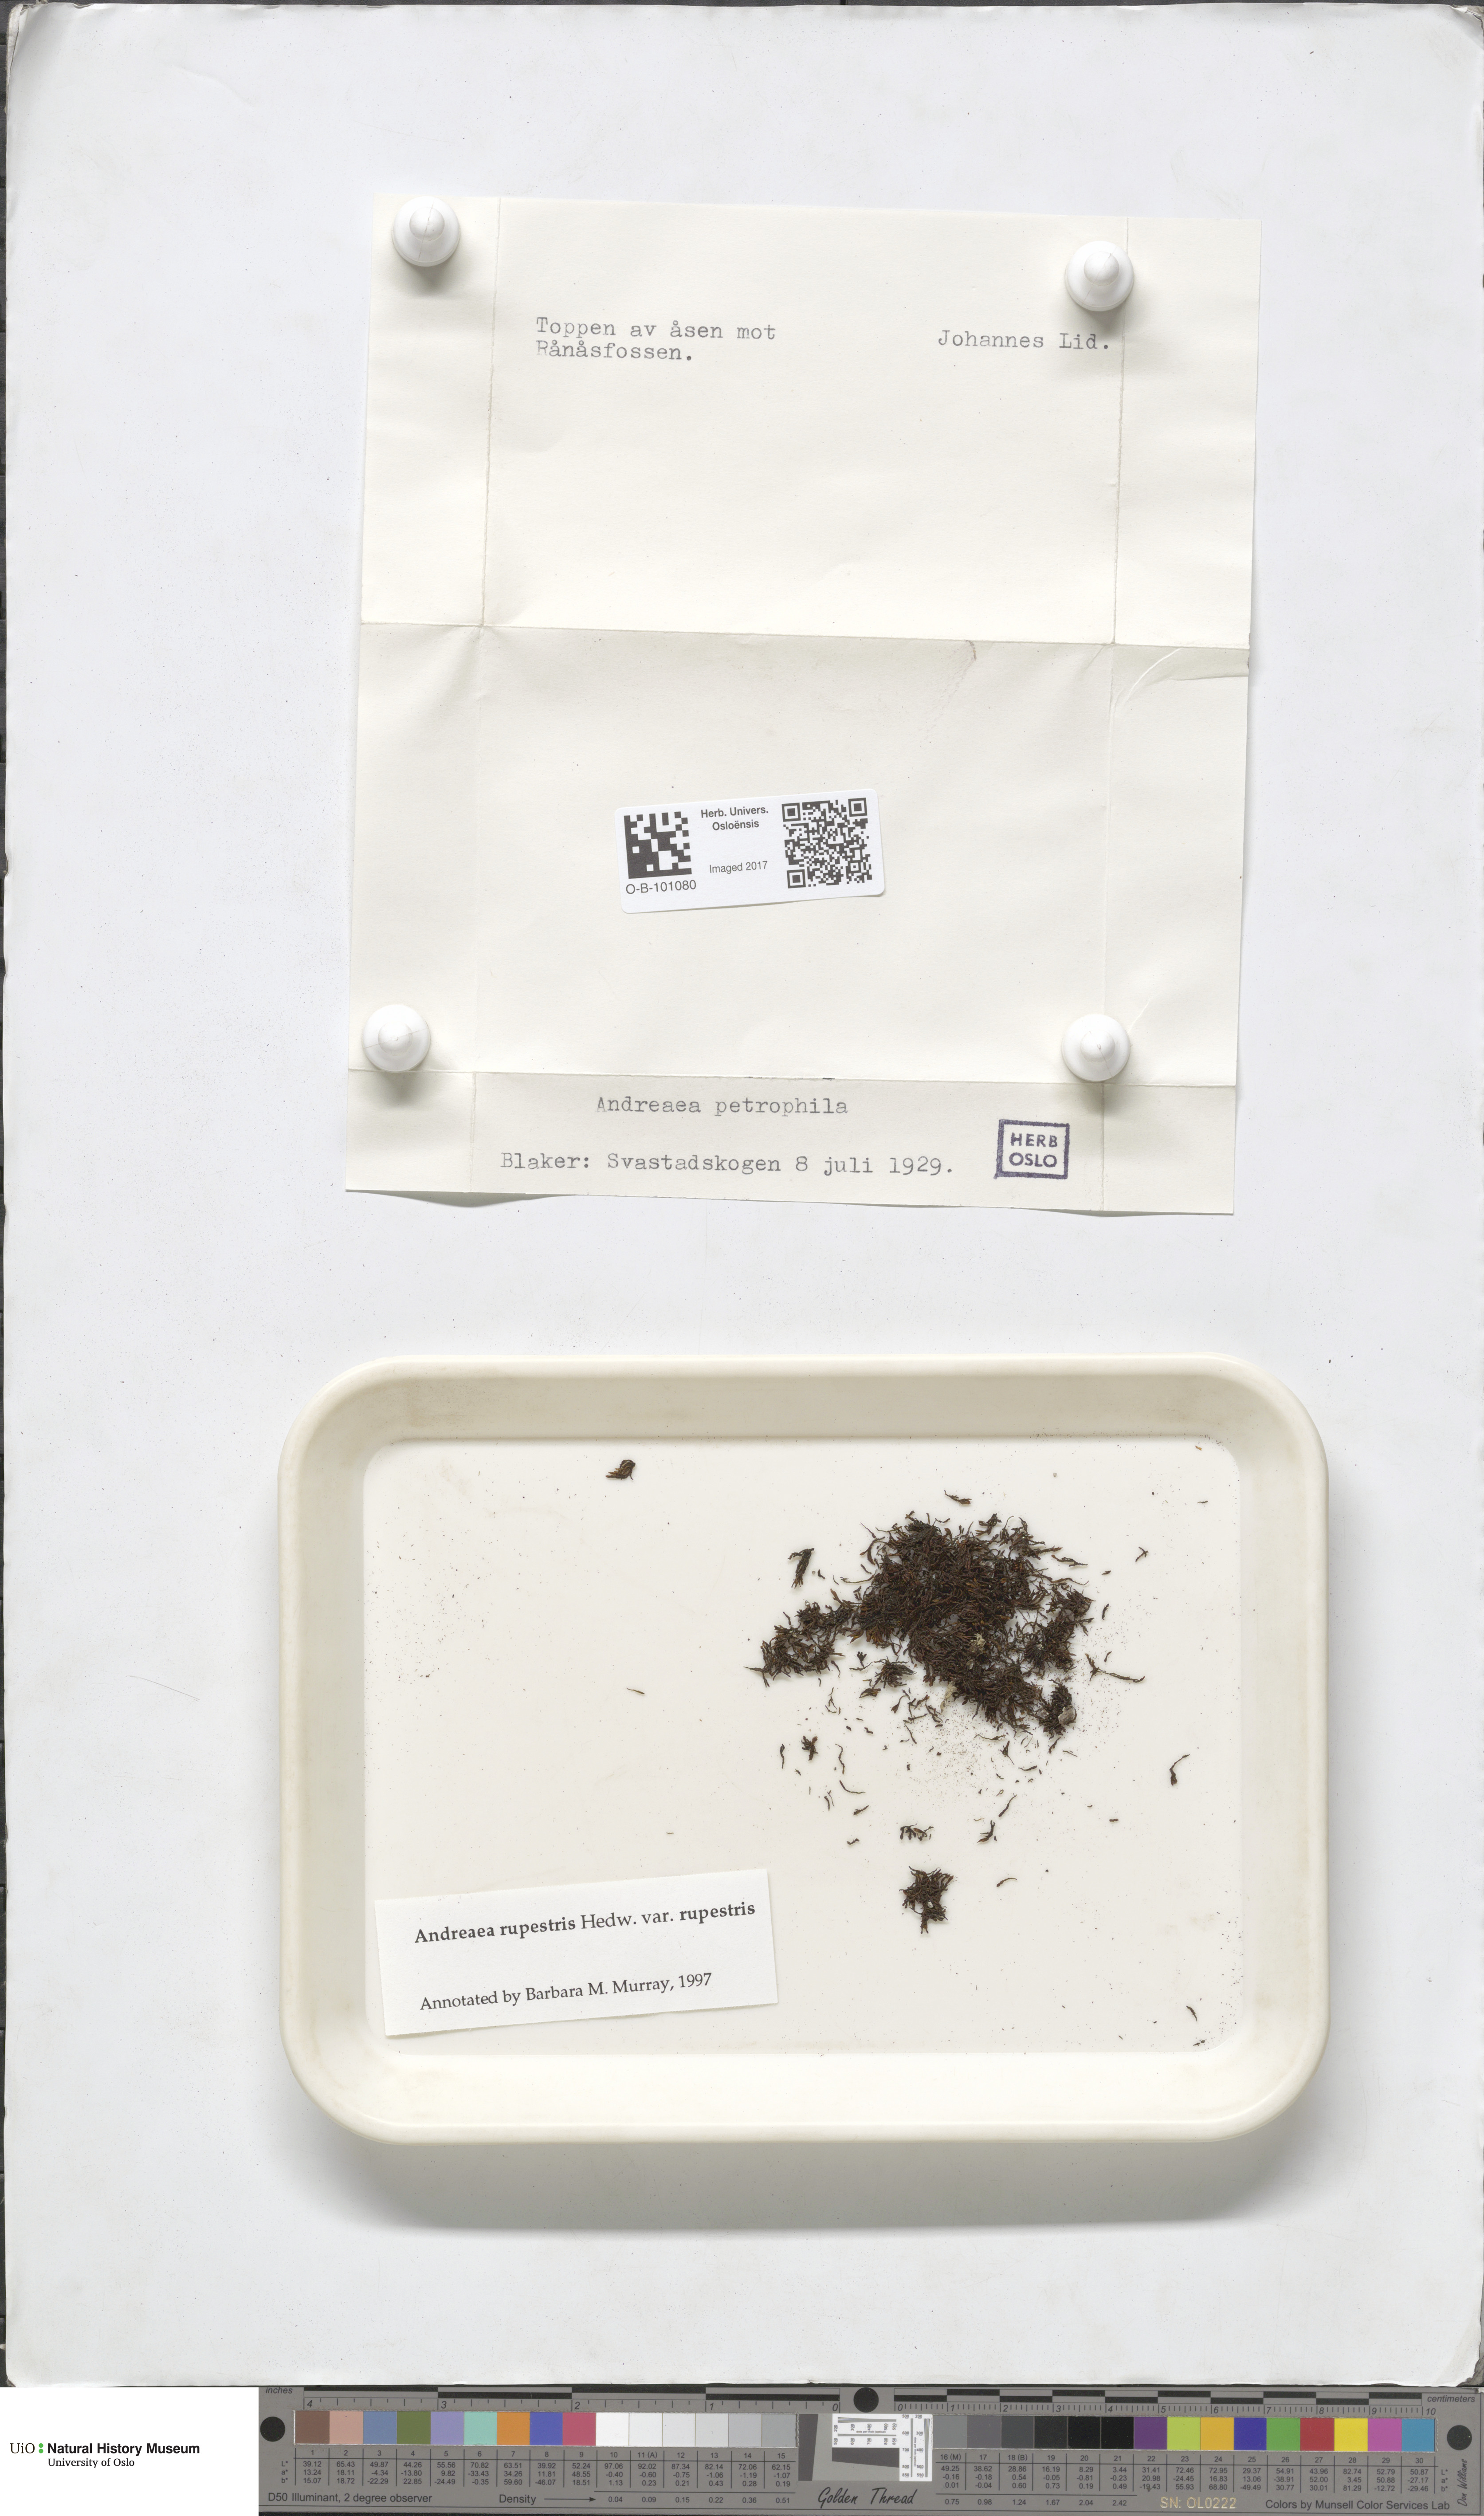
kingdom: Plantae
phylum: Bryophyta
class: Andreaeopsida
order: Andreaeales
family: Andreaeaceae
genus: Andreaea
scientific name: Andreaea rupestris
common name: Black rock moss
